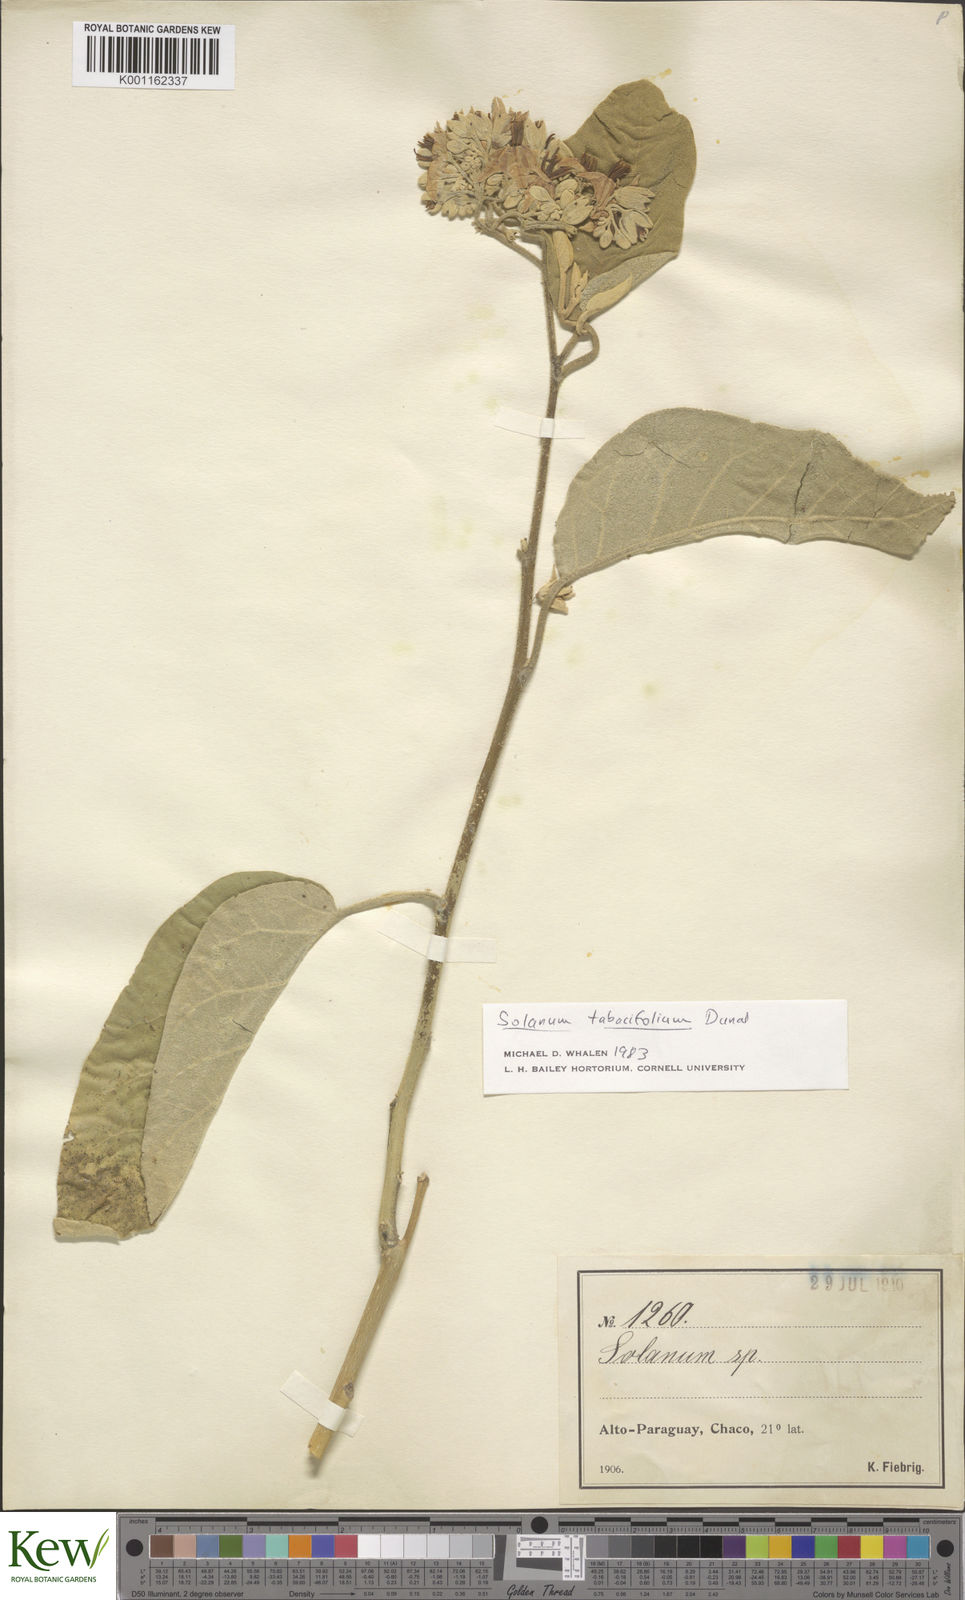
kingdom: Plantae
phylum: Tracheophyta
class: Magnoliopsida
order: Solanales
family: Solanaceae
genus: Solanum
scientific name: Solanum scuticum
